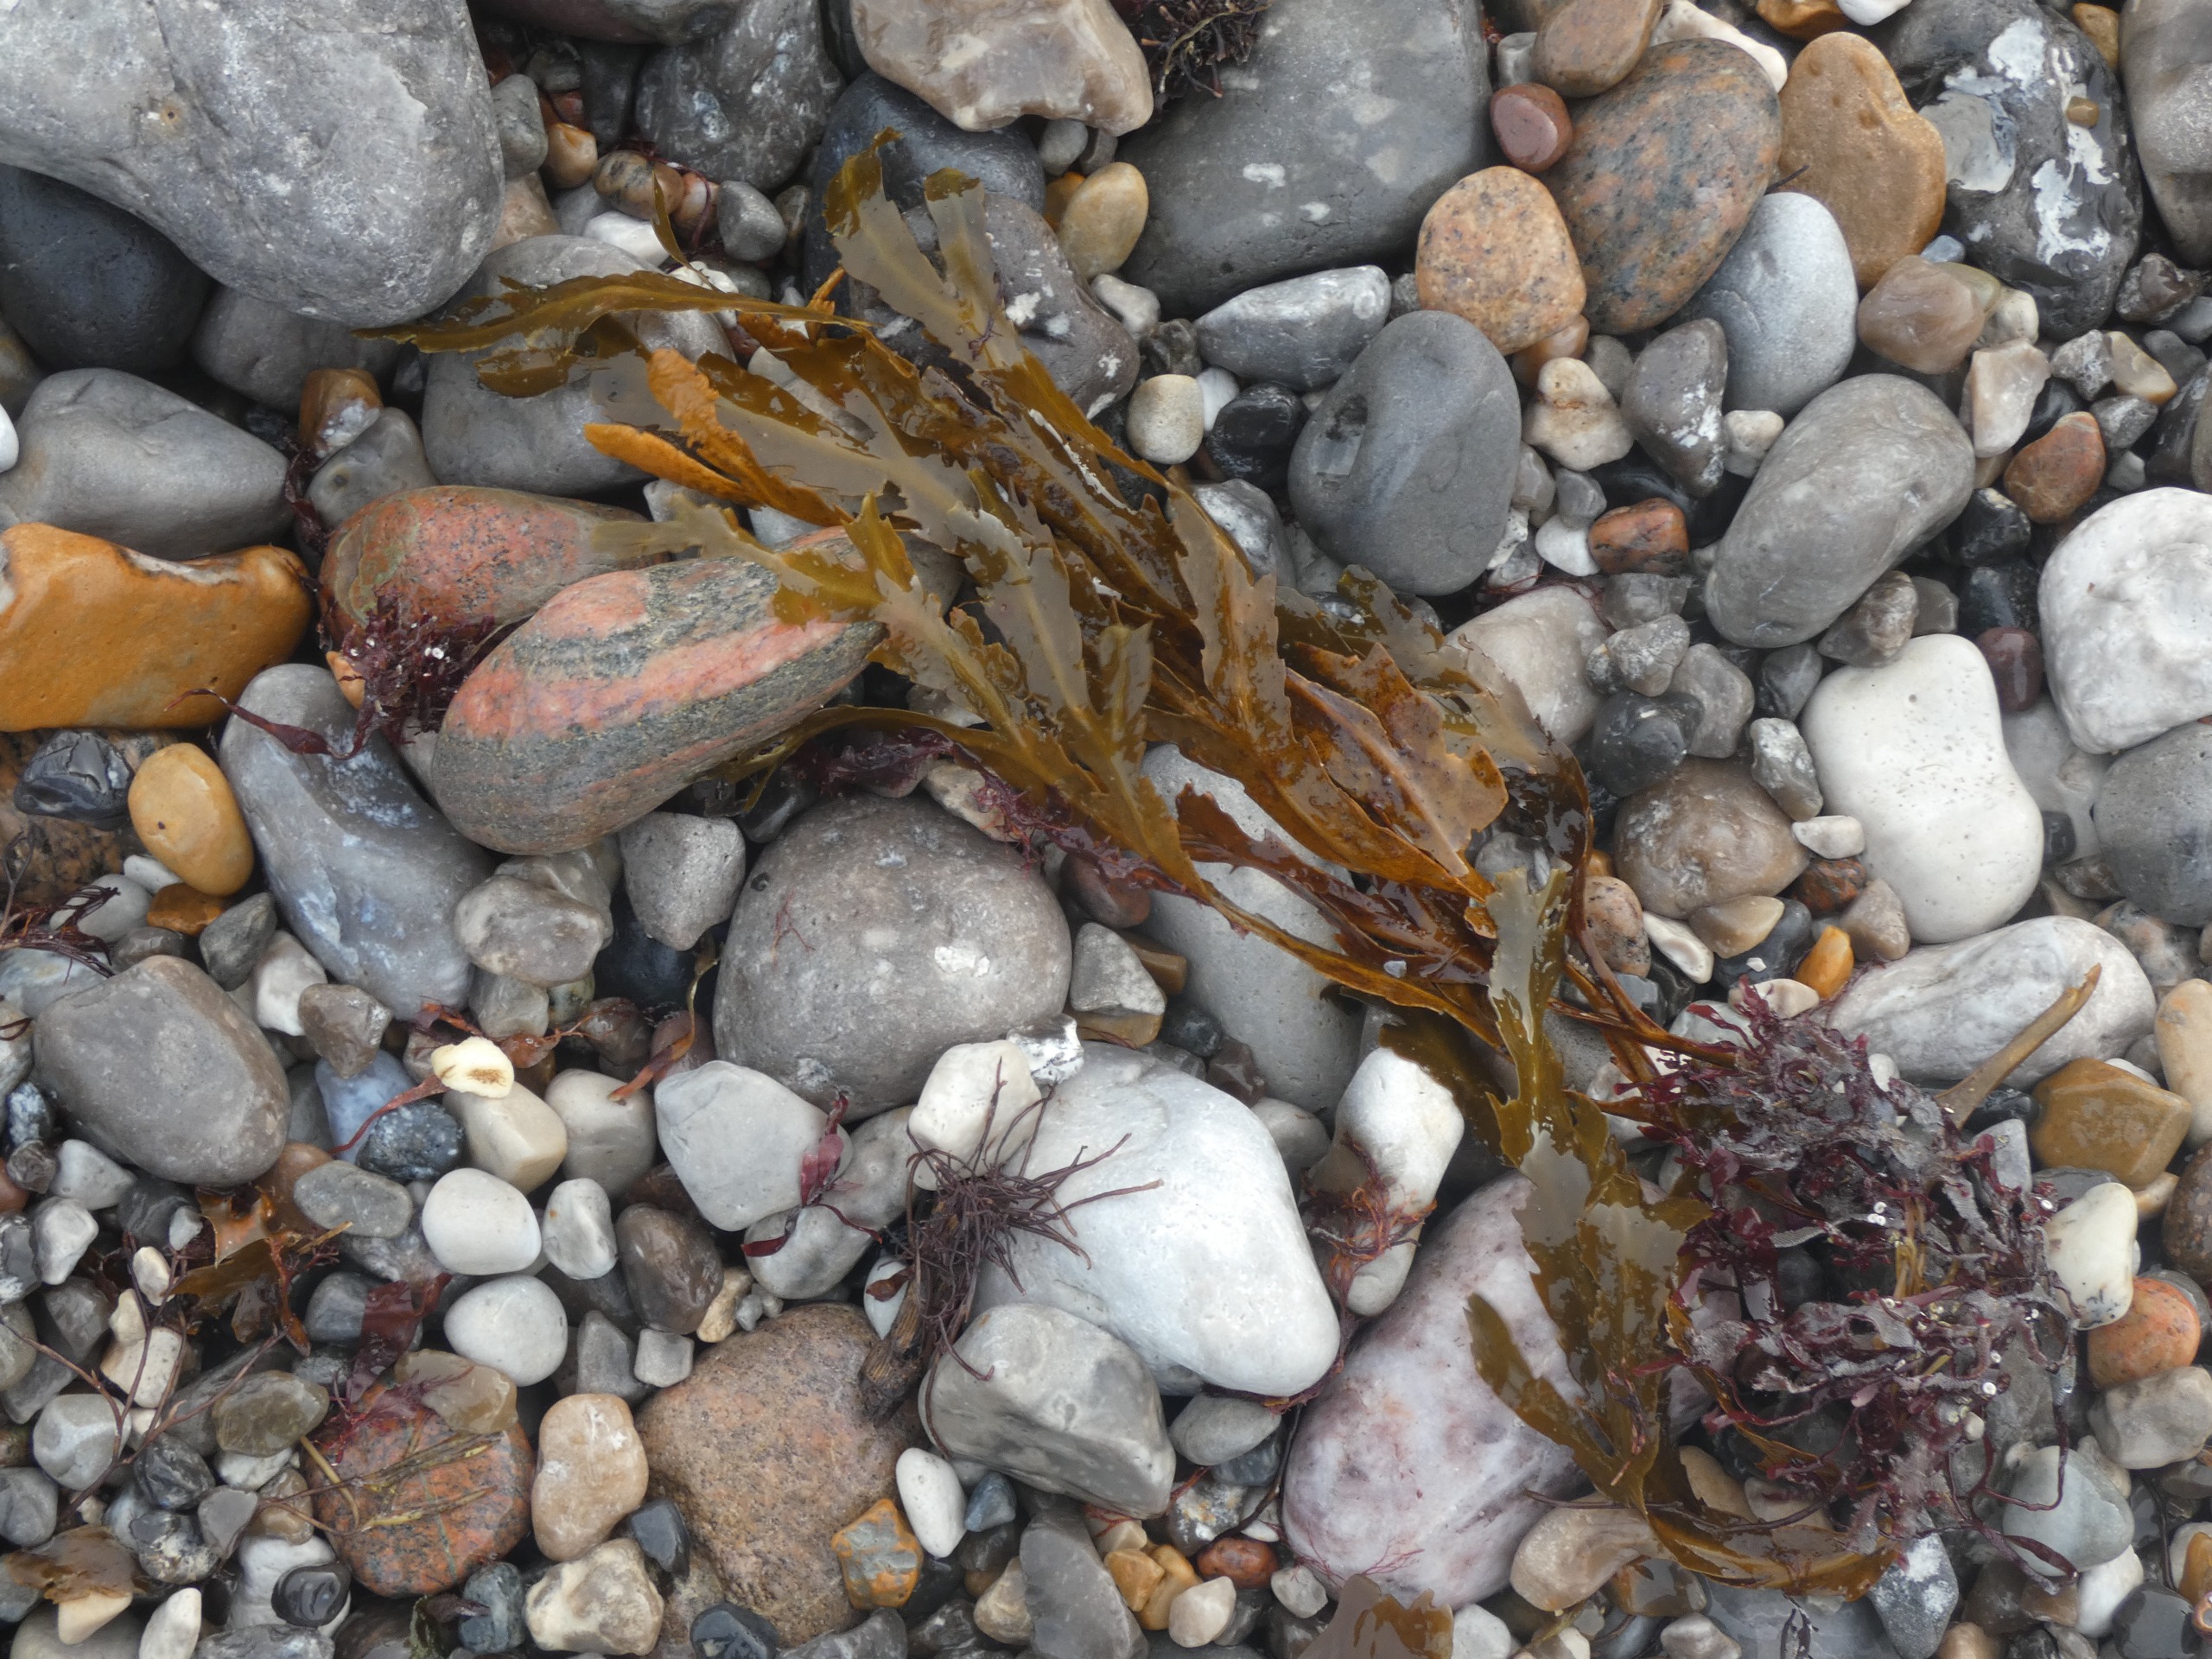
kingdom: Chromista
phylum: Ochrophyta
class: Phaeophyceae
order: Fucales
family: Fucaceae
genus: Fucus
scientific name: Fucus serratus
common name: Savtang
